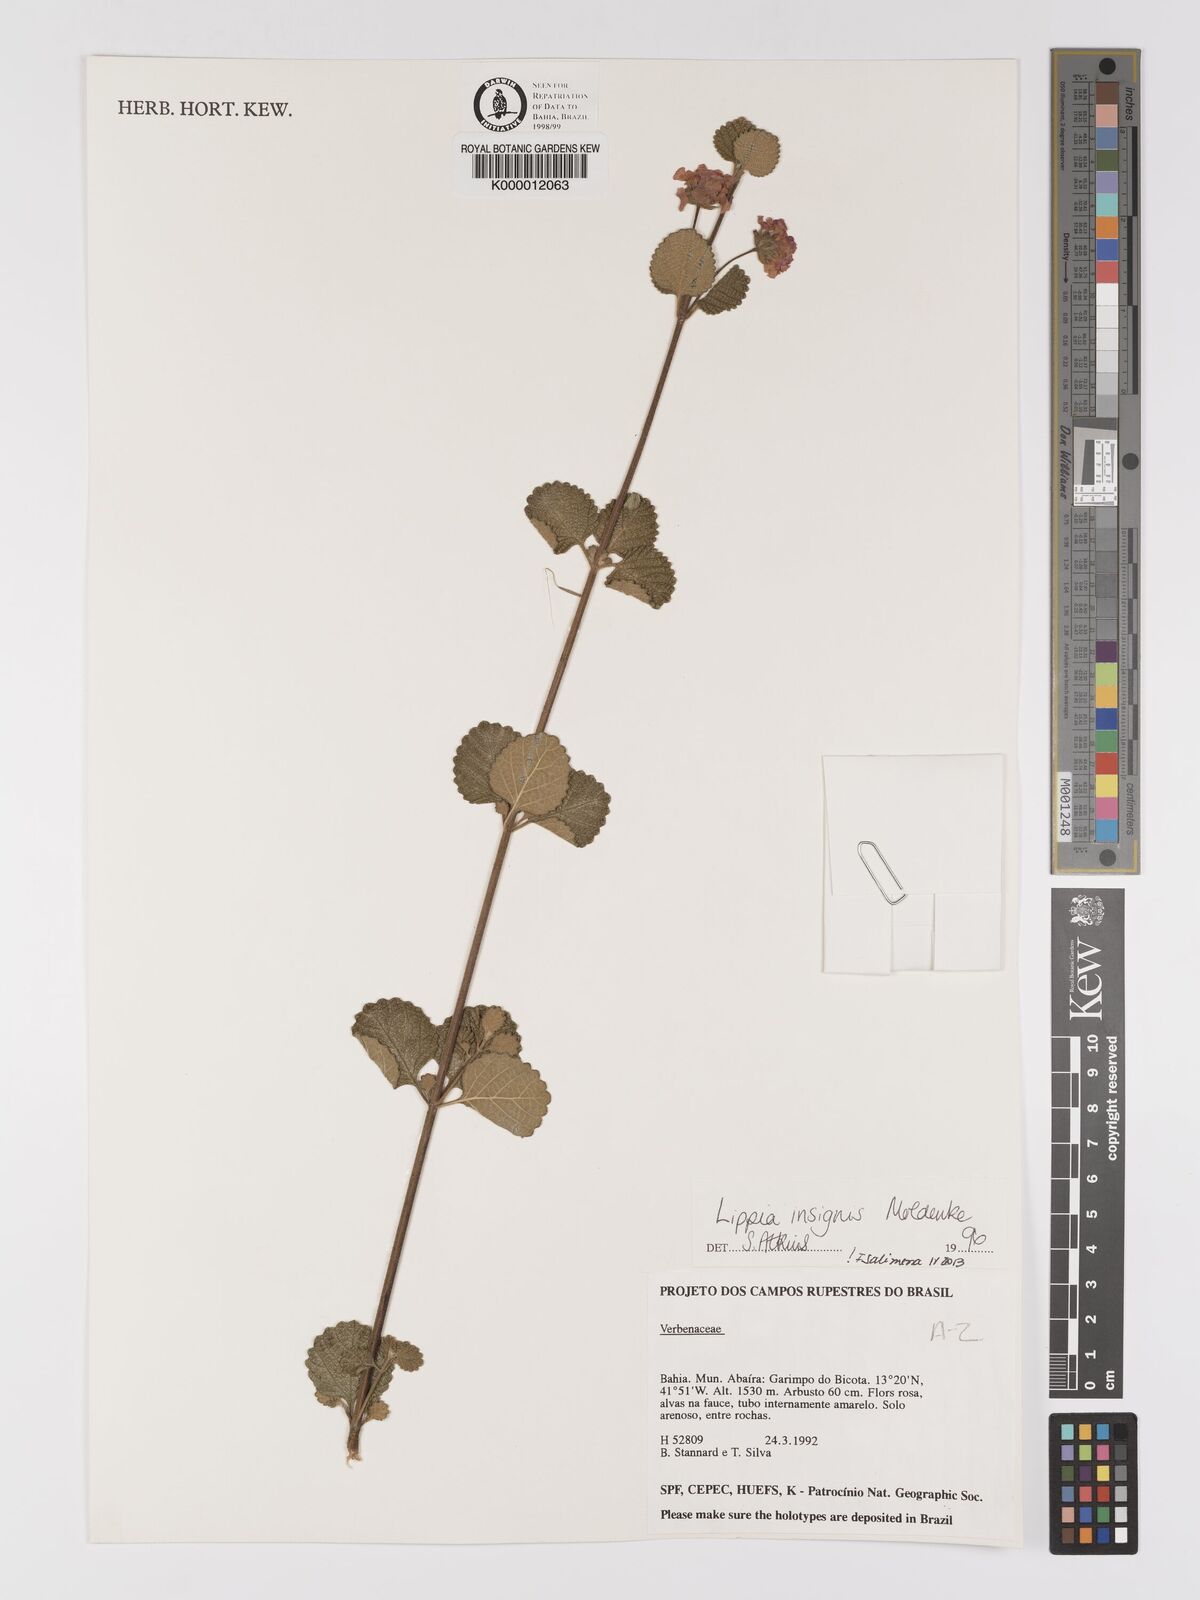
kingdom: Plantae
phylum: Tracheophyta
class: Magnoliopsida
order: Lamiales
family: Verbenaceae
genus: Lippia
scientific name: Lippia insignis
